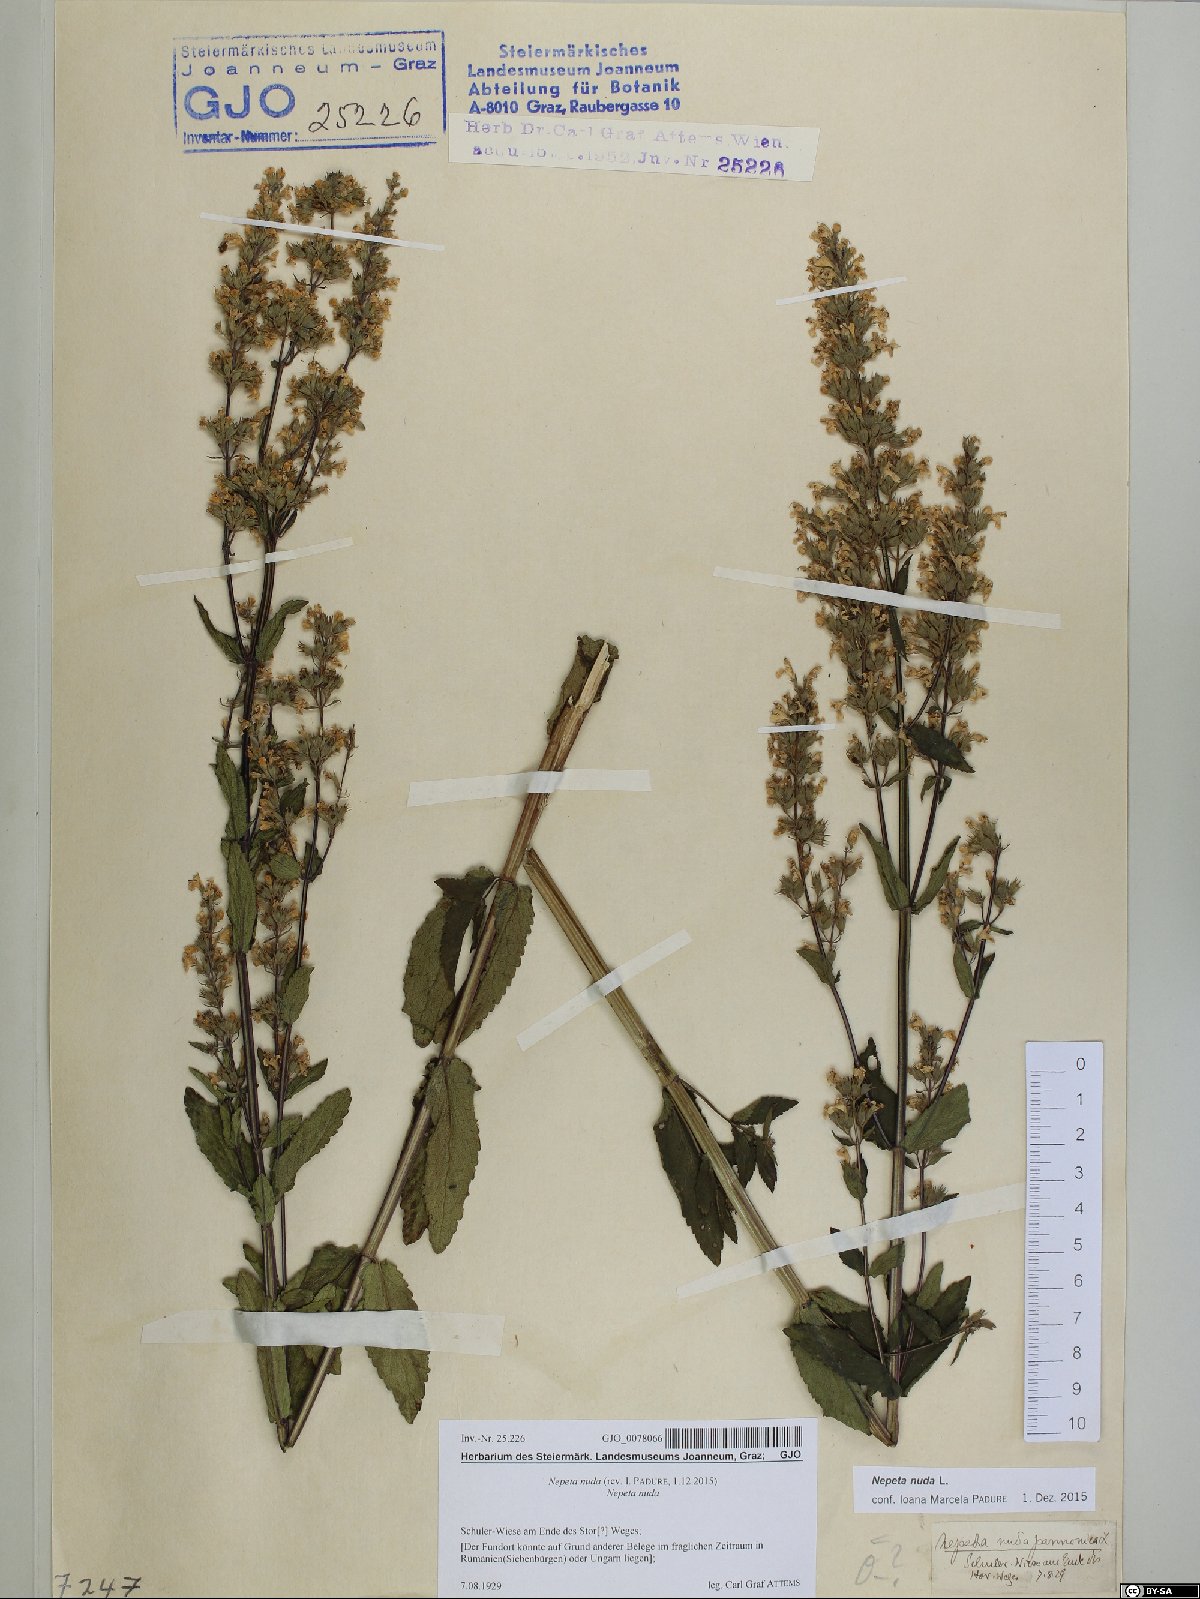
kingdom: Plantae
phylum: Tracheophyta
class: Magnoliopsida
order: Lamiales
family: Lamiaceae
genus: Nepeta
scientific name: Nepeta nuda
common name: Hairless catmint
